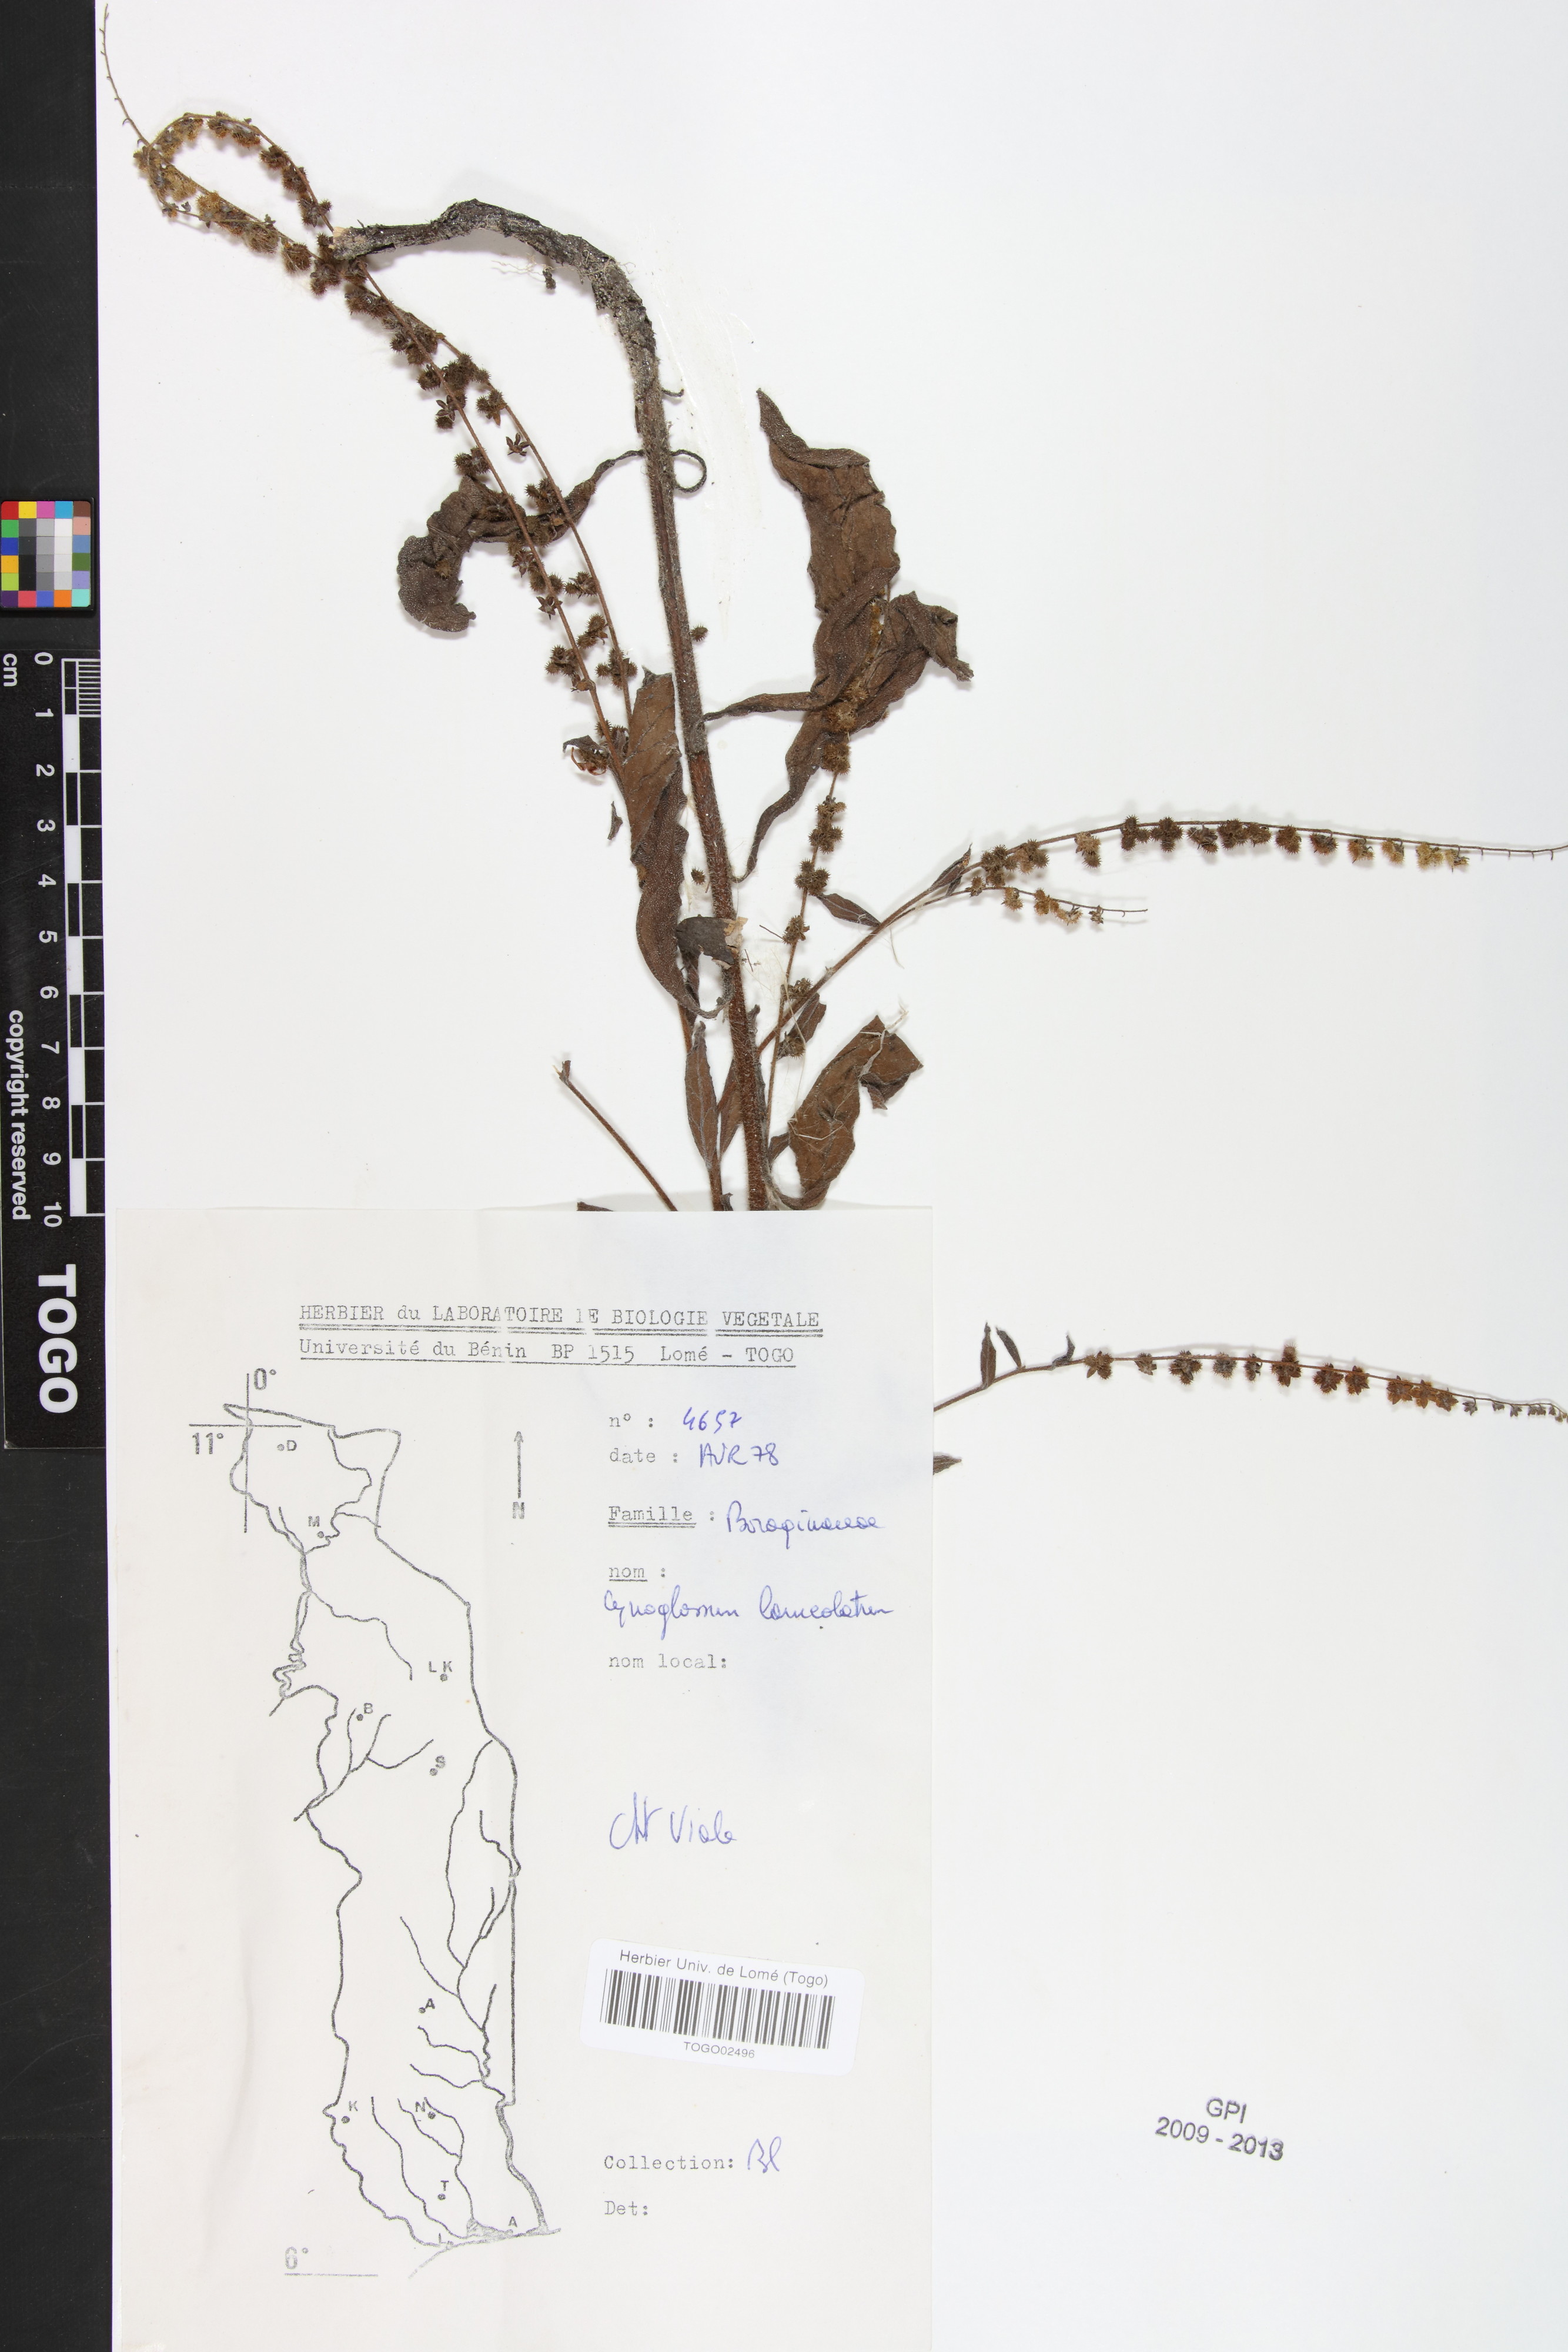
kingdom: Plantae
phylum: Tracheophyta
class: Magnoliopsida
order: Boraginales
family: Boraginaceae
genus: Paracynoglossum
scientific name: Paracynoglossum lanceolatum
